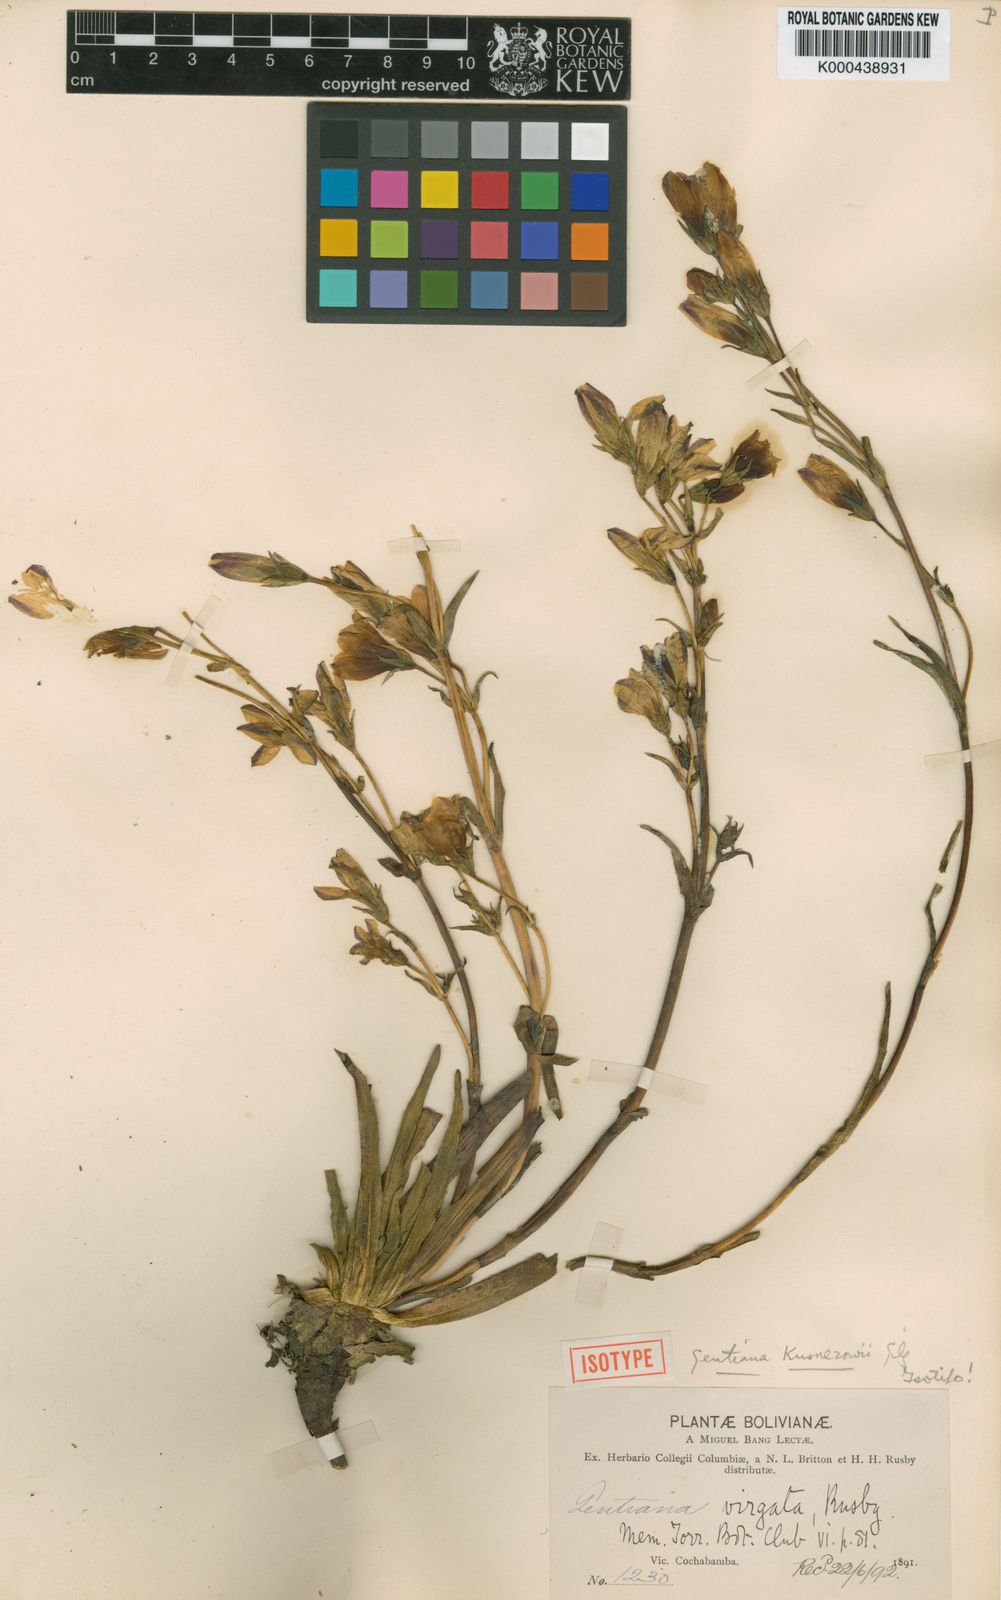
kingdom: Plantae
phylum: Tracheophyta
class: Magnoliopsida
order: Gentianales
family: Gentianaceae
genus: Gentianella
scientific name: Gentianella kusnezowii
